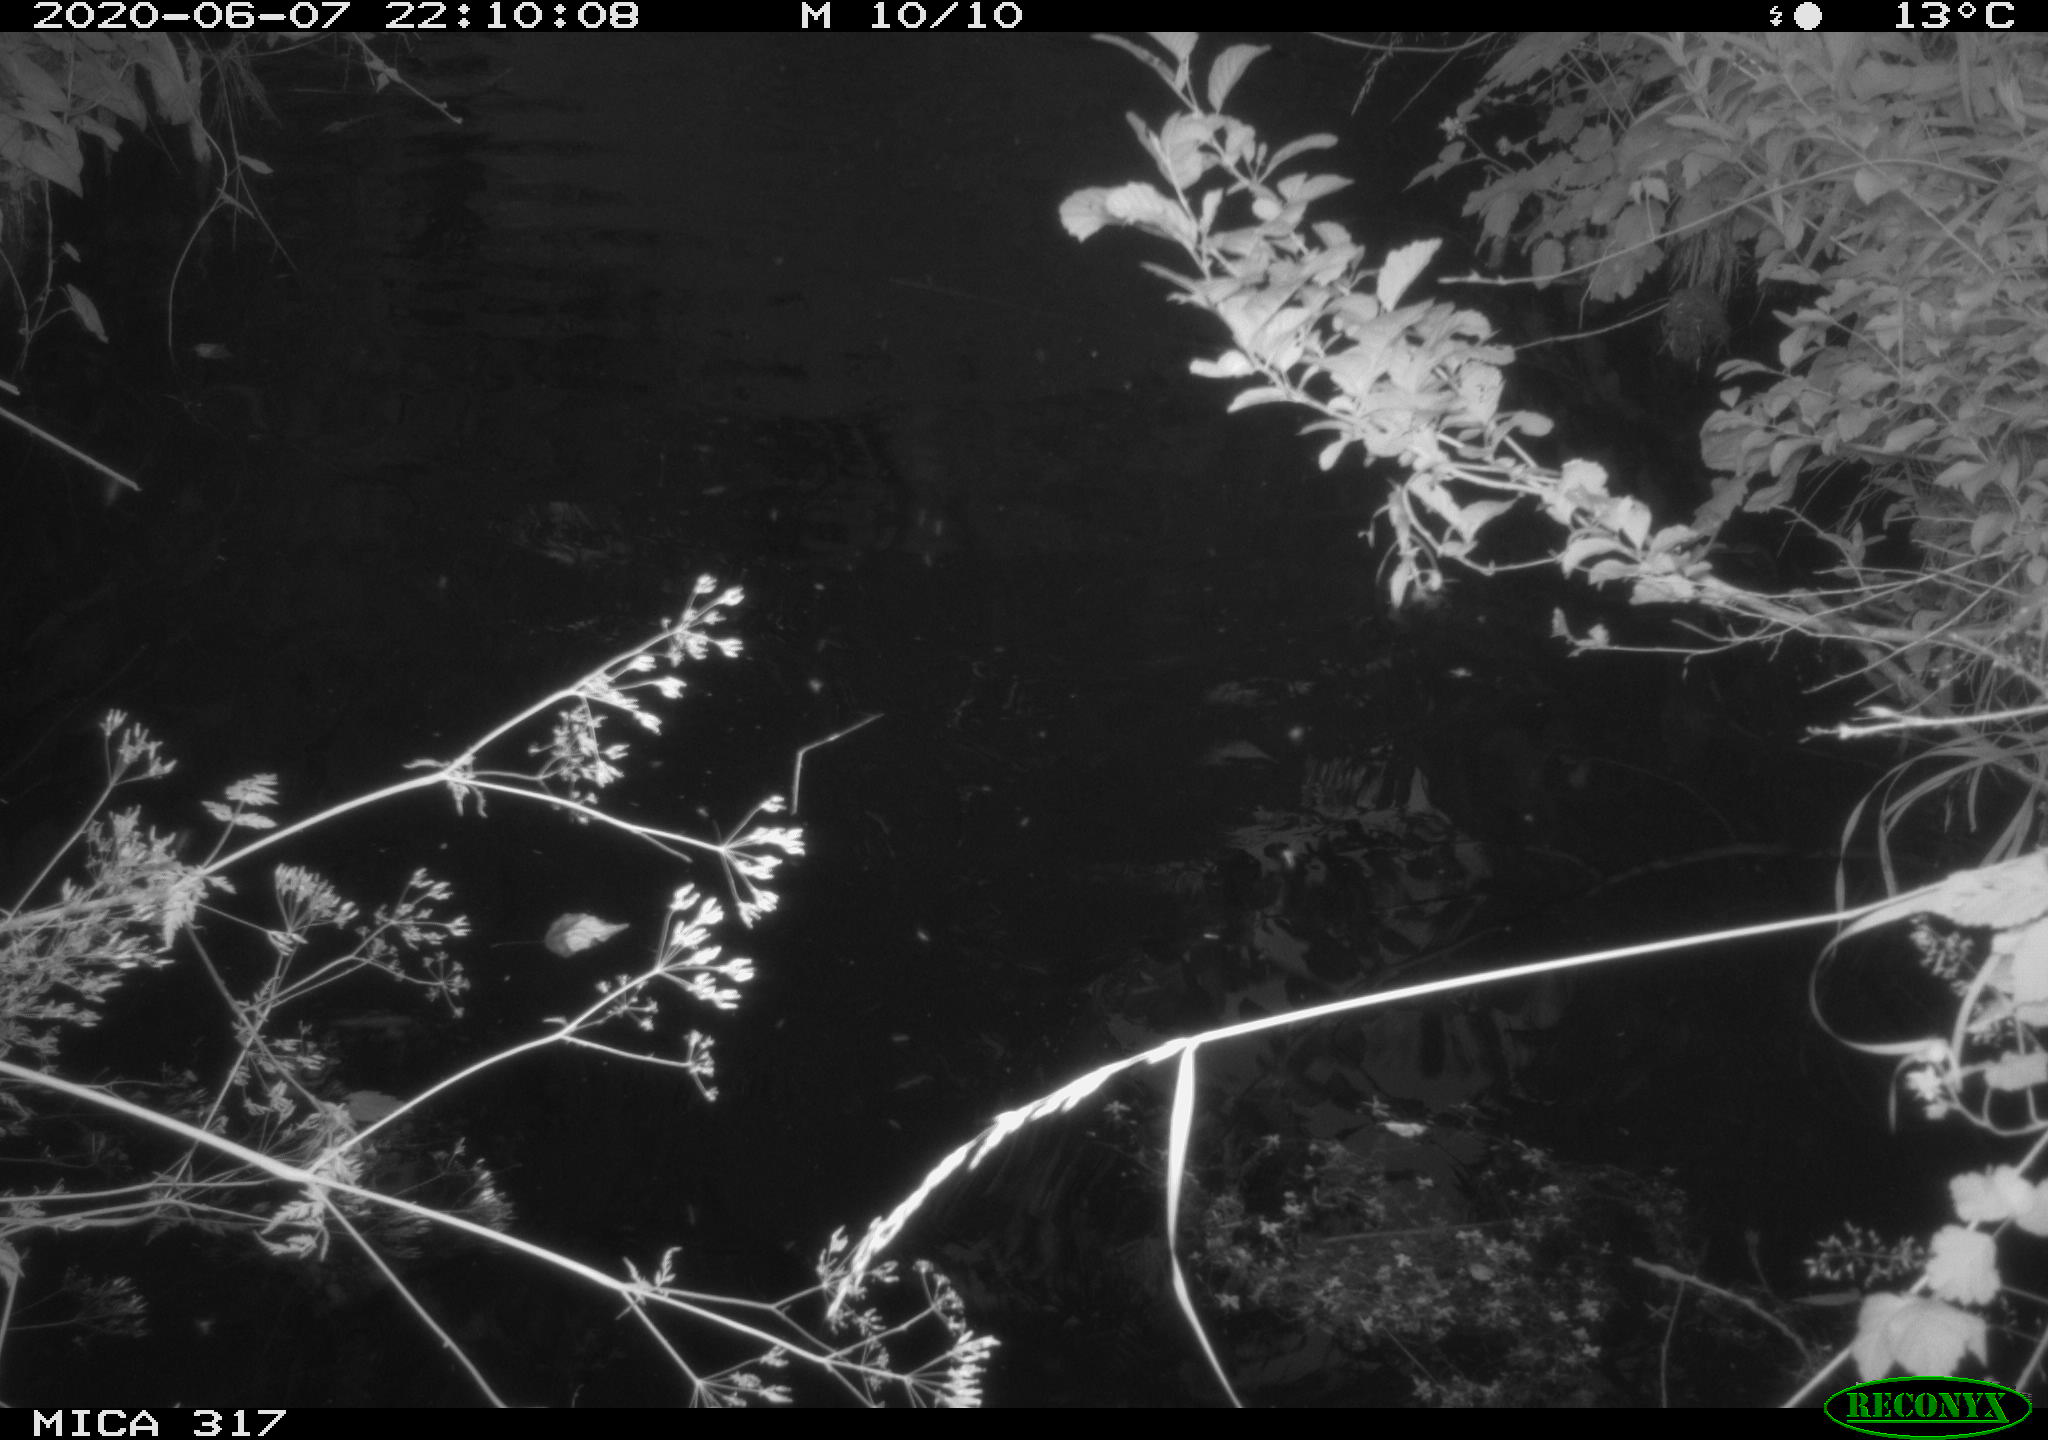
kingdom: Animalia
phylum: Chordata
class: Aves
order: Anseriformes
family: Anatidae
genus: Anas
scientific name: Anas platyrhynchos
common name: Mallard
